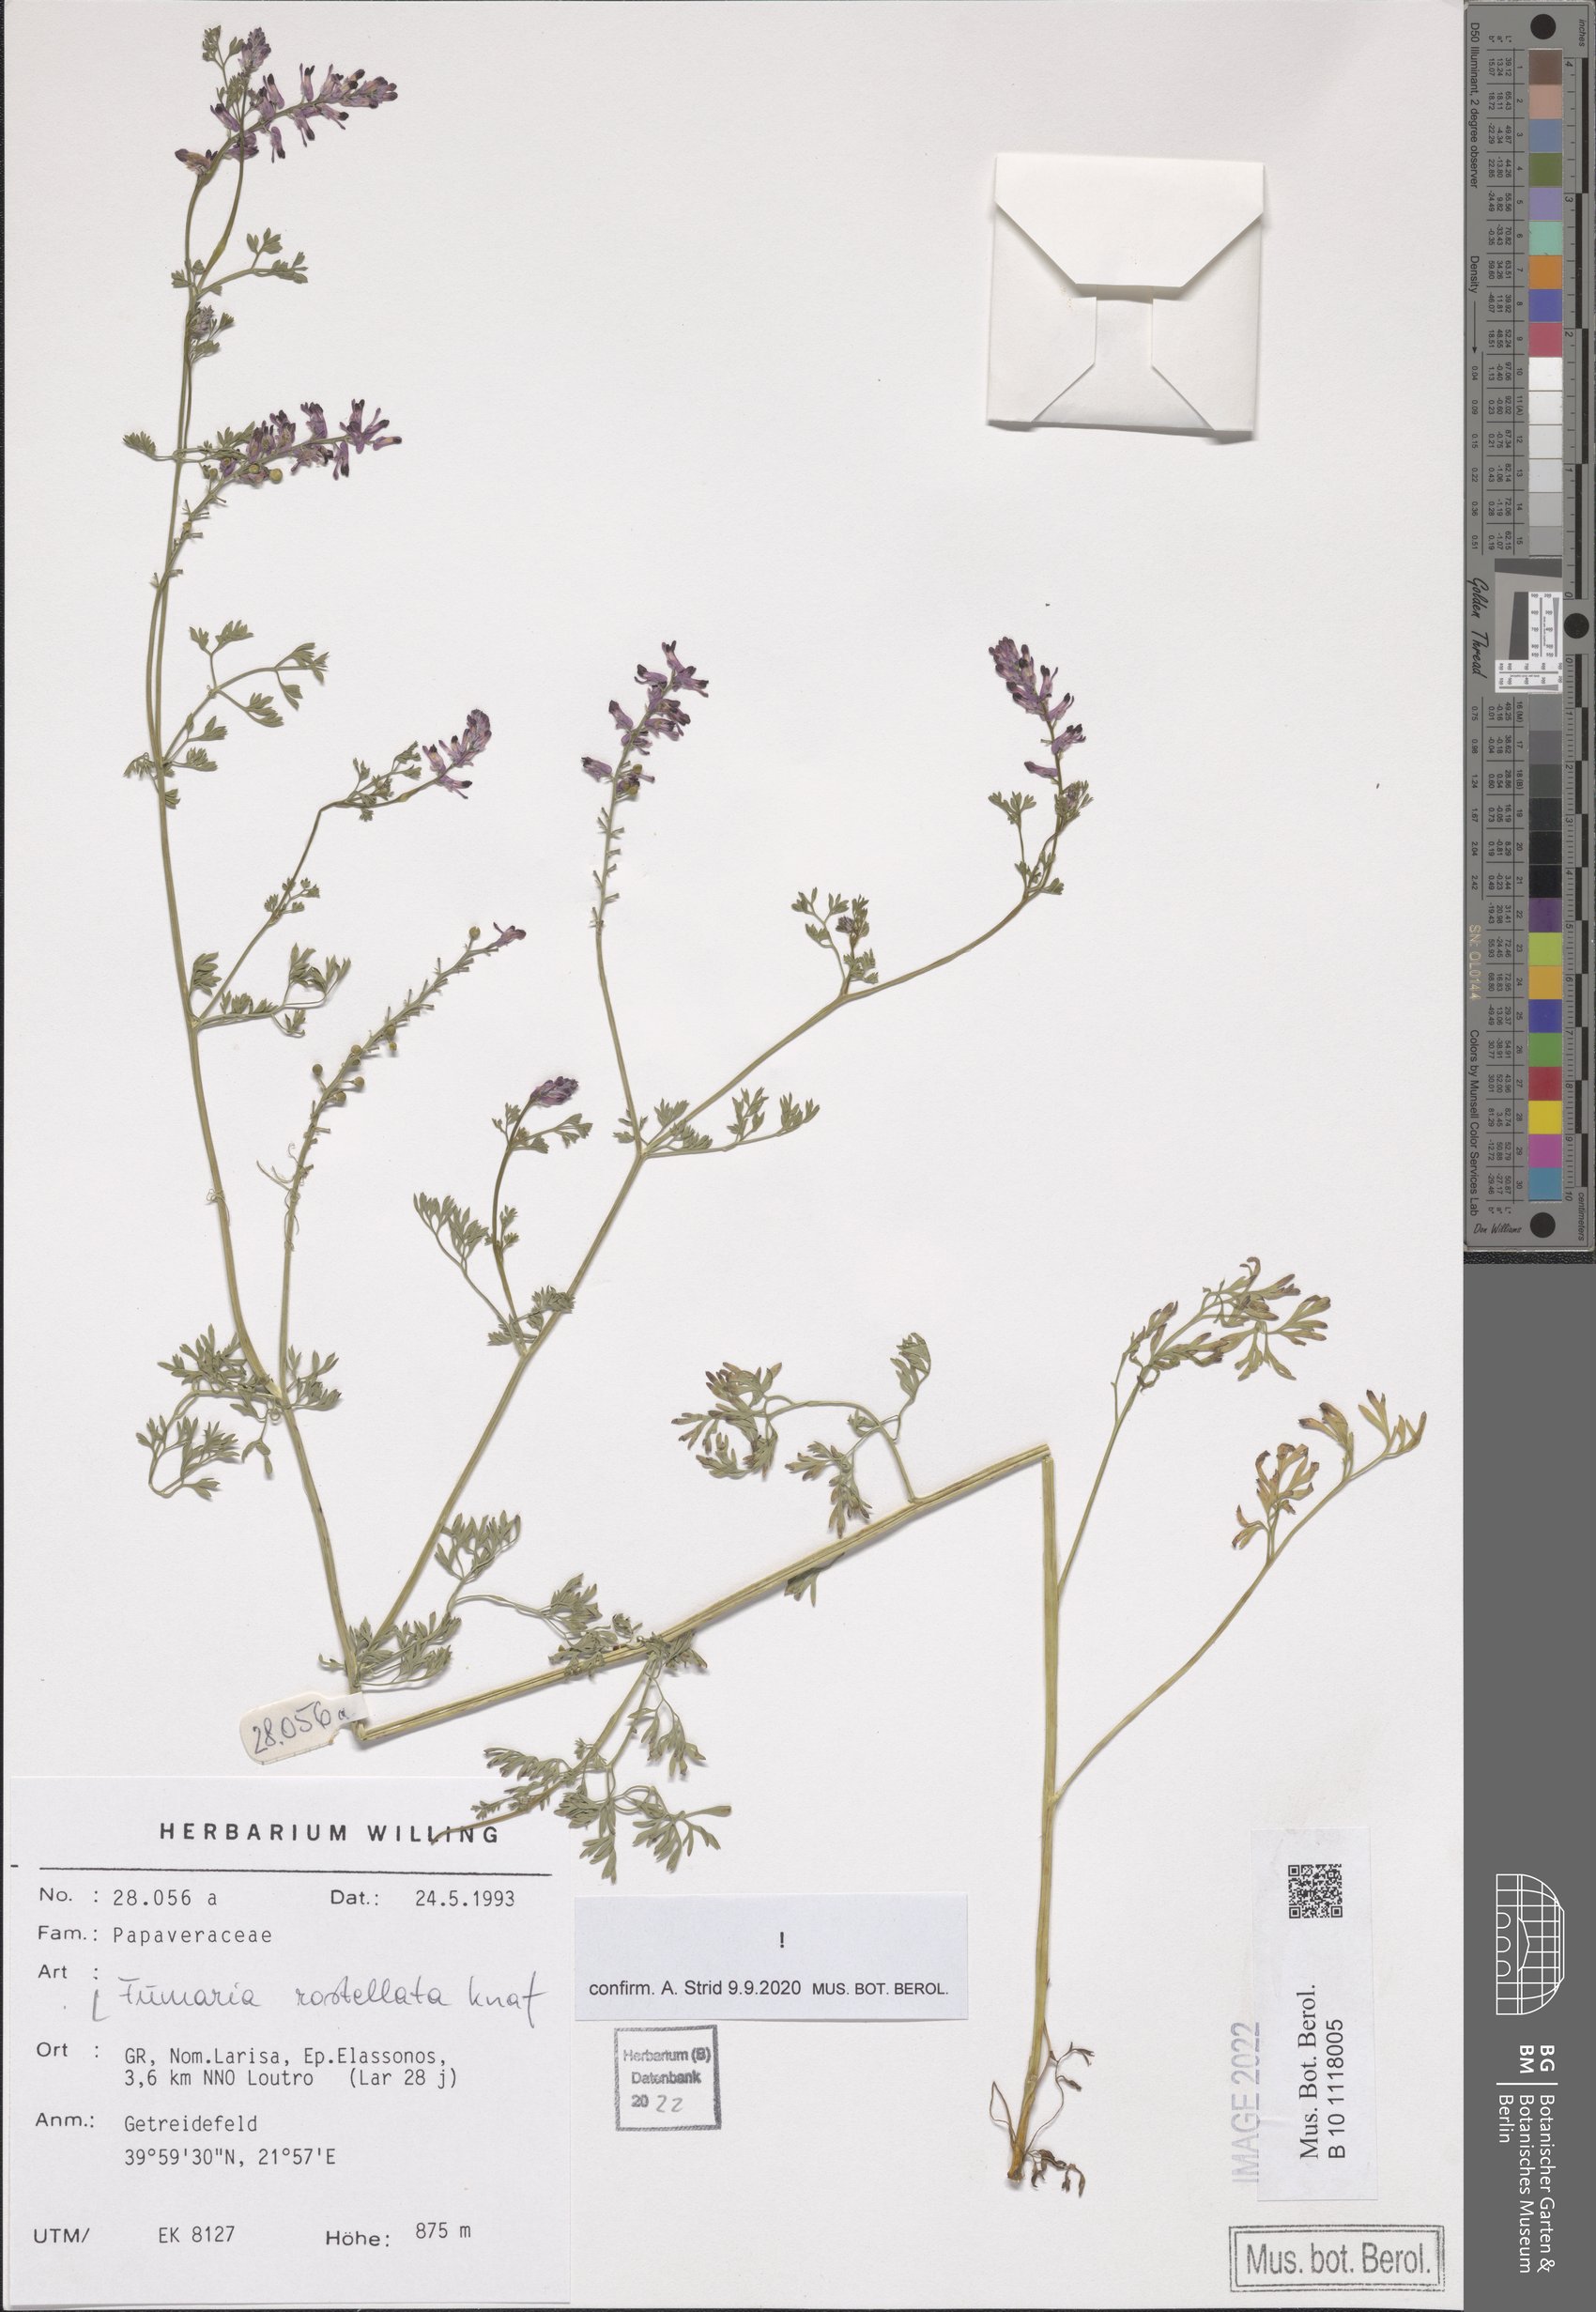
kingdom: Plantae
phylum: Tracheophyta
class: Magnoliopsida
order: Ranunculales
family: Papaveraceae
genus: Fumaria
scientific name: Fumaria rostellata
